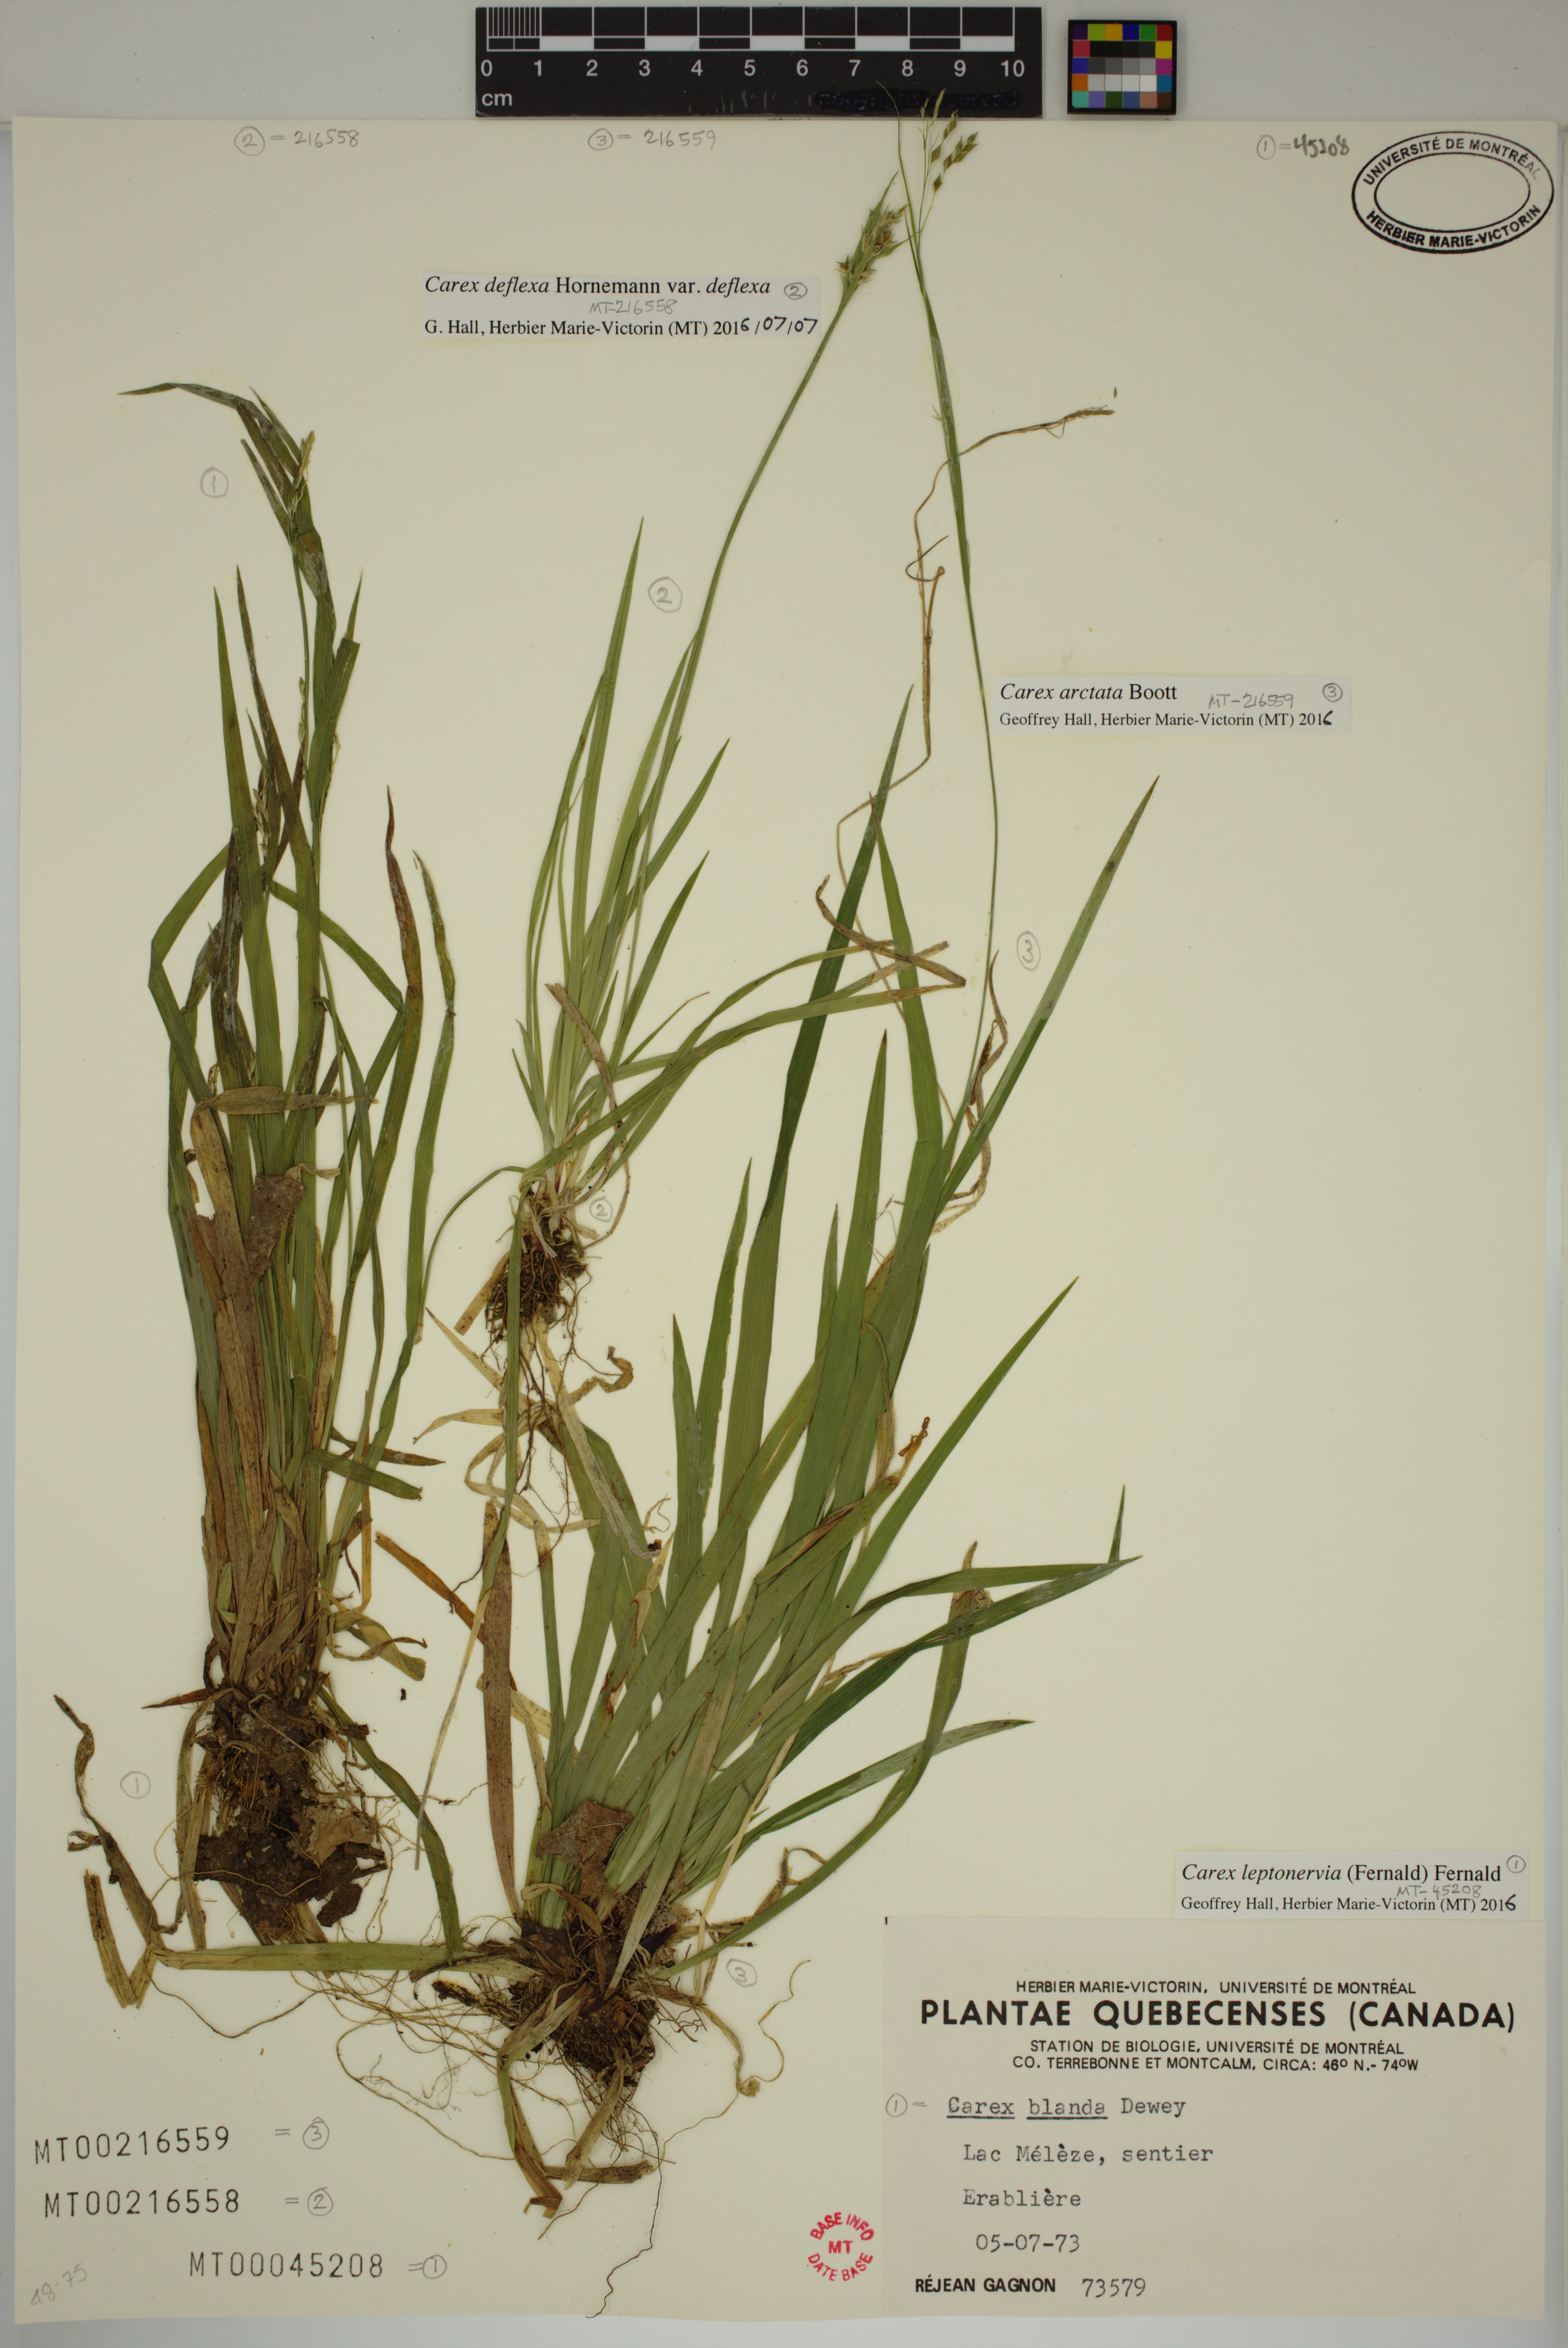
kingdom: Plantae
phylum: Tracheophyta
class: Liliopsida
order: Poales
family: Cyperaceae
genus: Carex
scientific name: Carex leptonervia
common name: Few-nerved wood sedge
